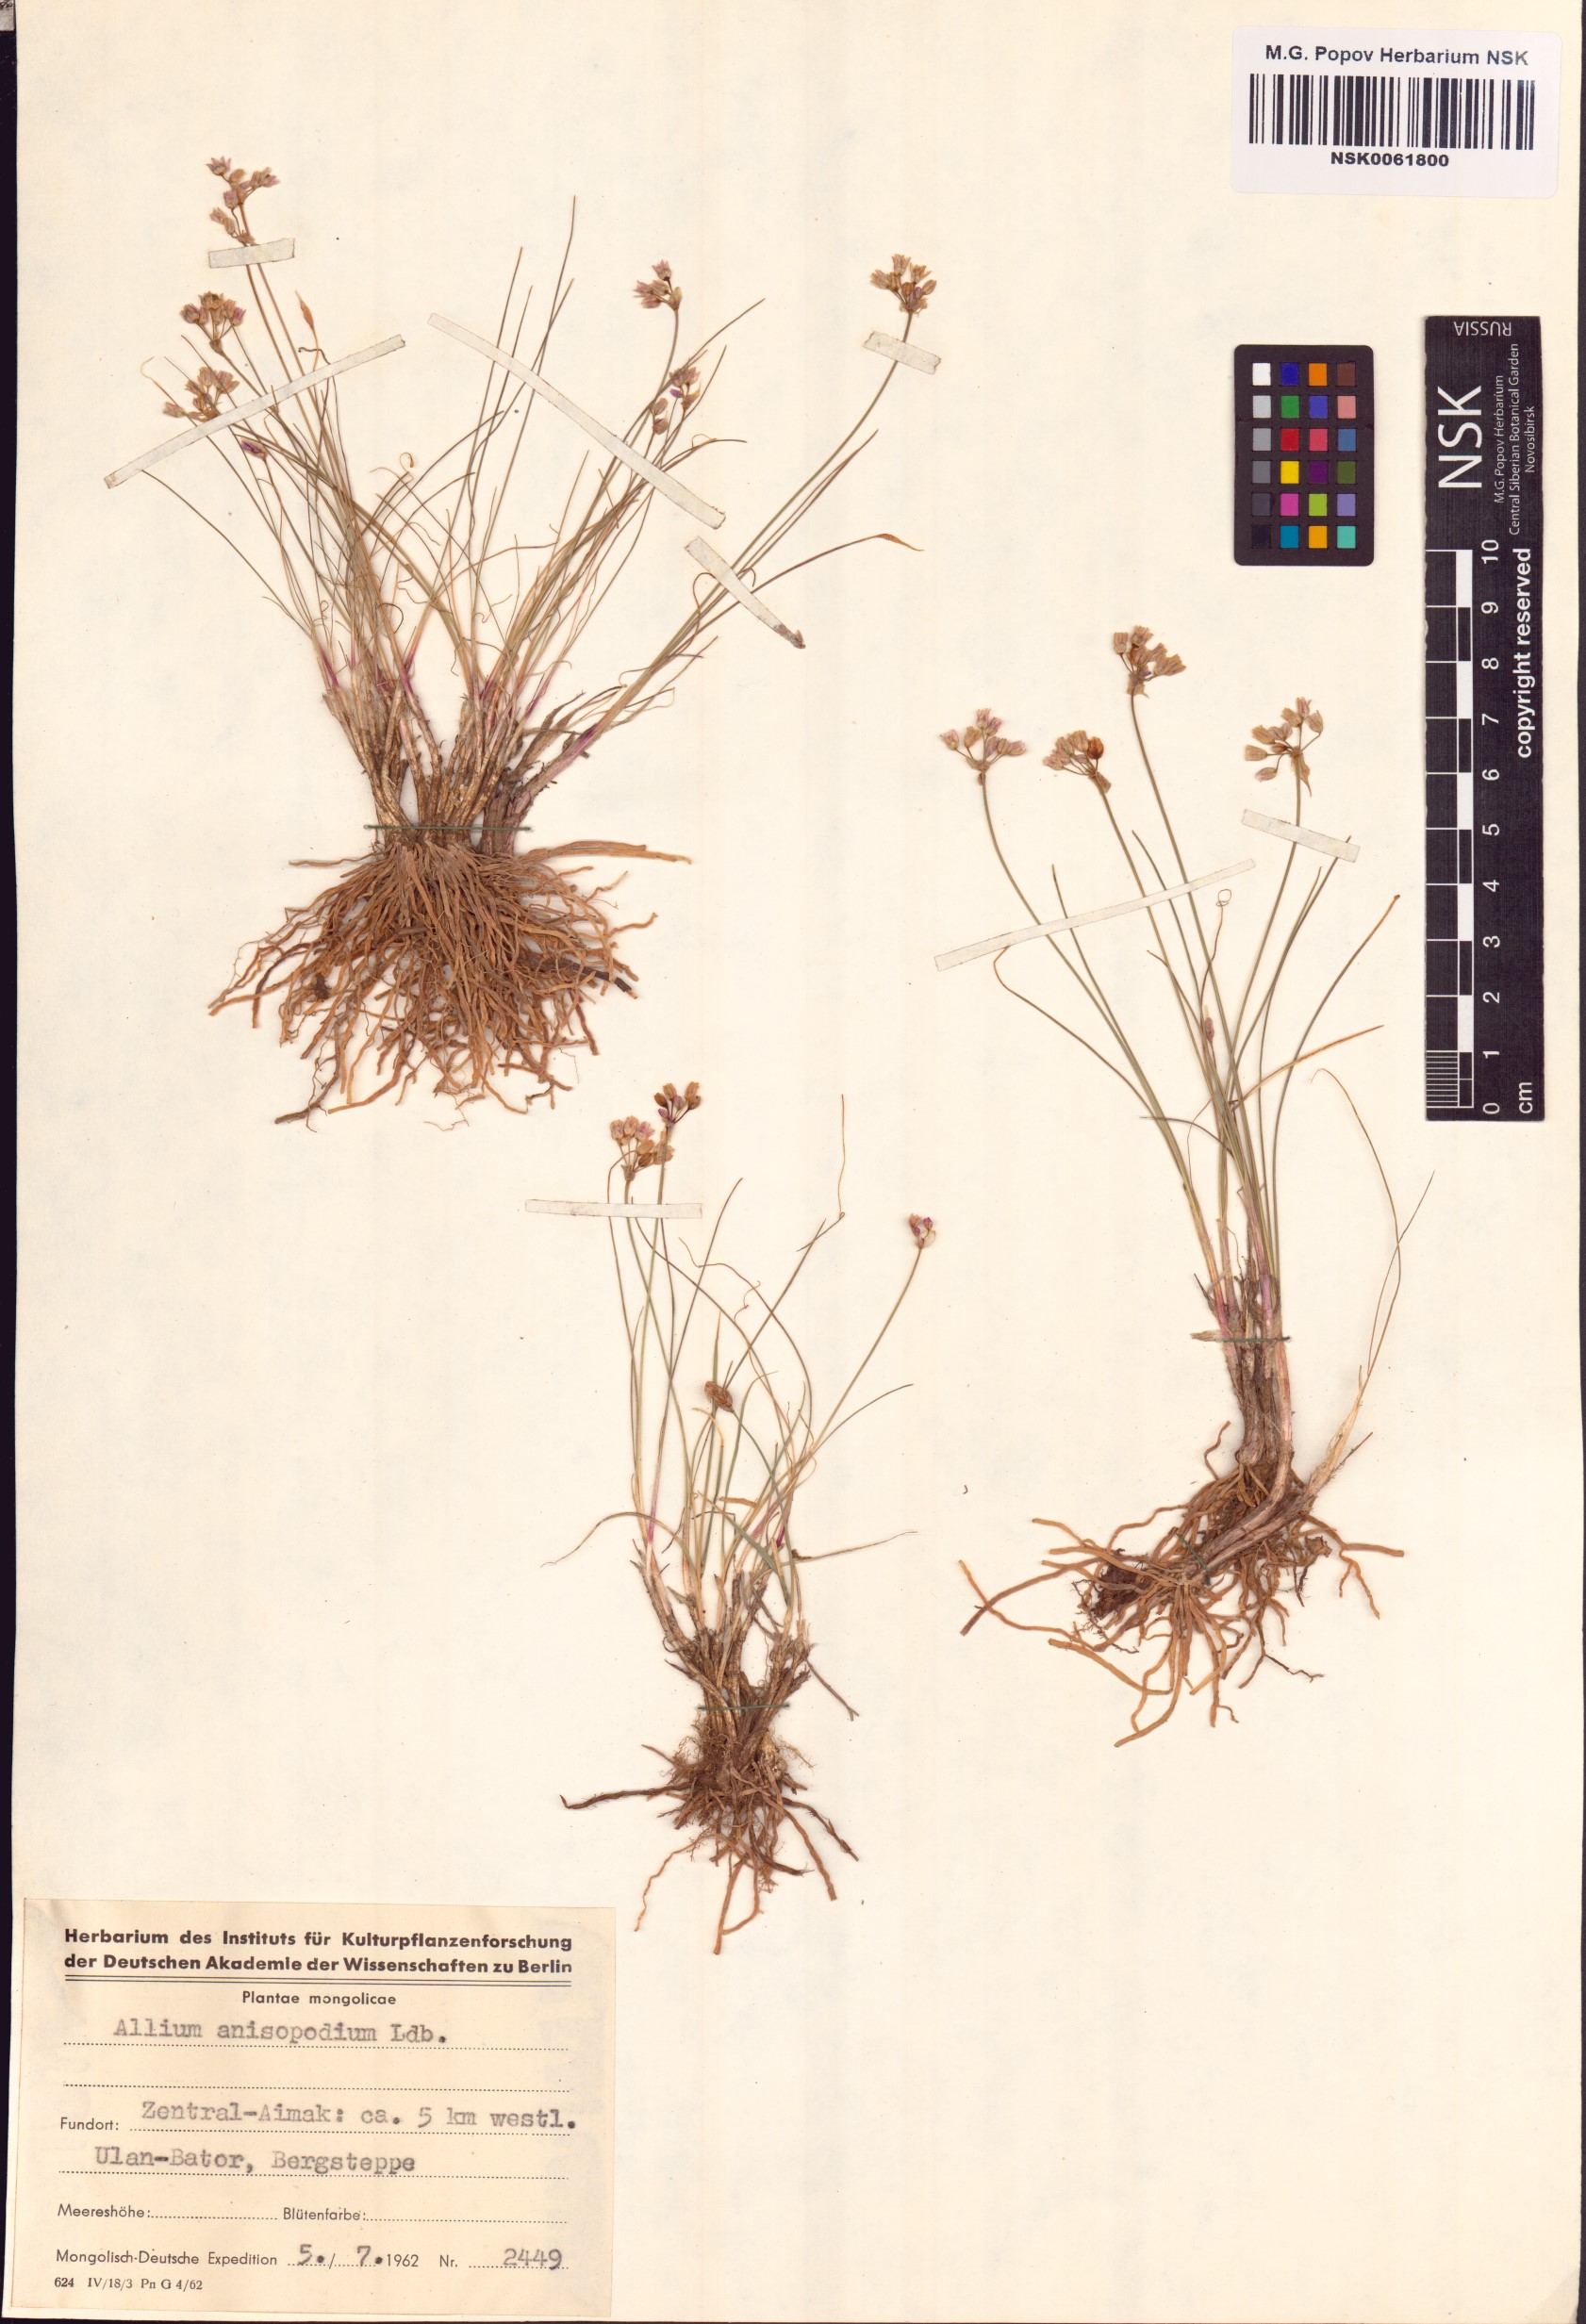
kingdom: Plantae
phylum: Tracheophyta
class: Liliopsida
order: Asparagales
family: Amaryllidaceae
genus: Allium
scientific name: Allium anisopodium
